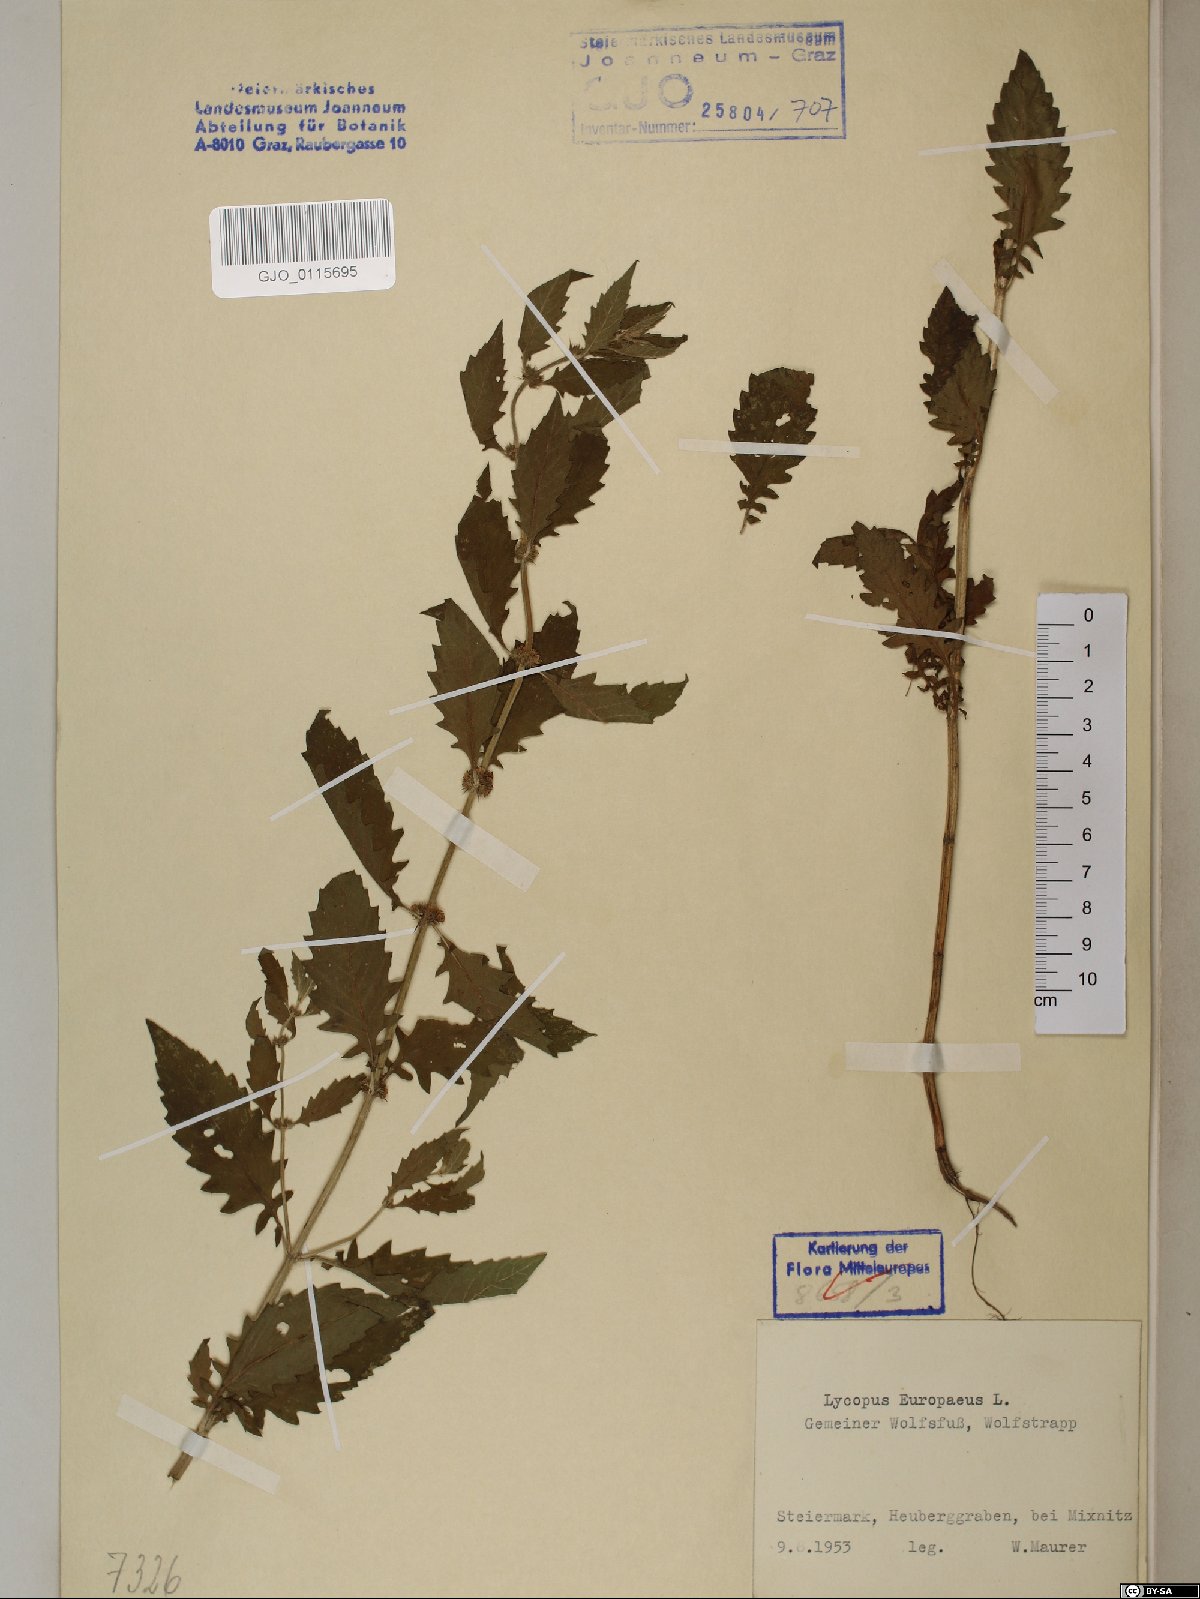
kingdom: Plantae
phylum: Tracheophyta
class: Magnoliopsida
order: Lamiales
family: Lamiaceae
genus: Lycopus
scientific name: Lycopus europaeus
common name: European bugleweed
